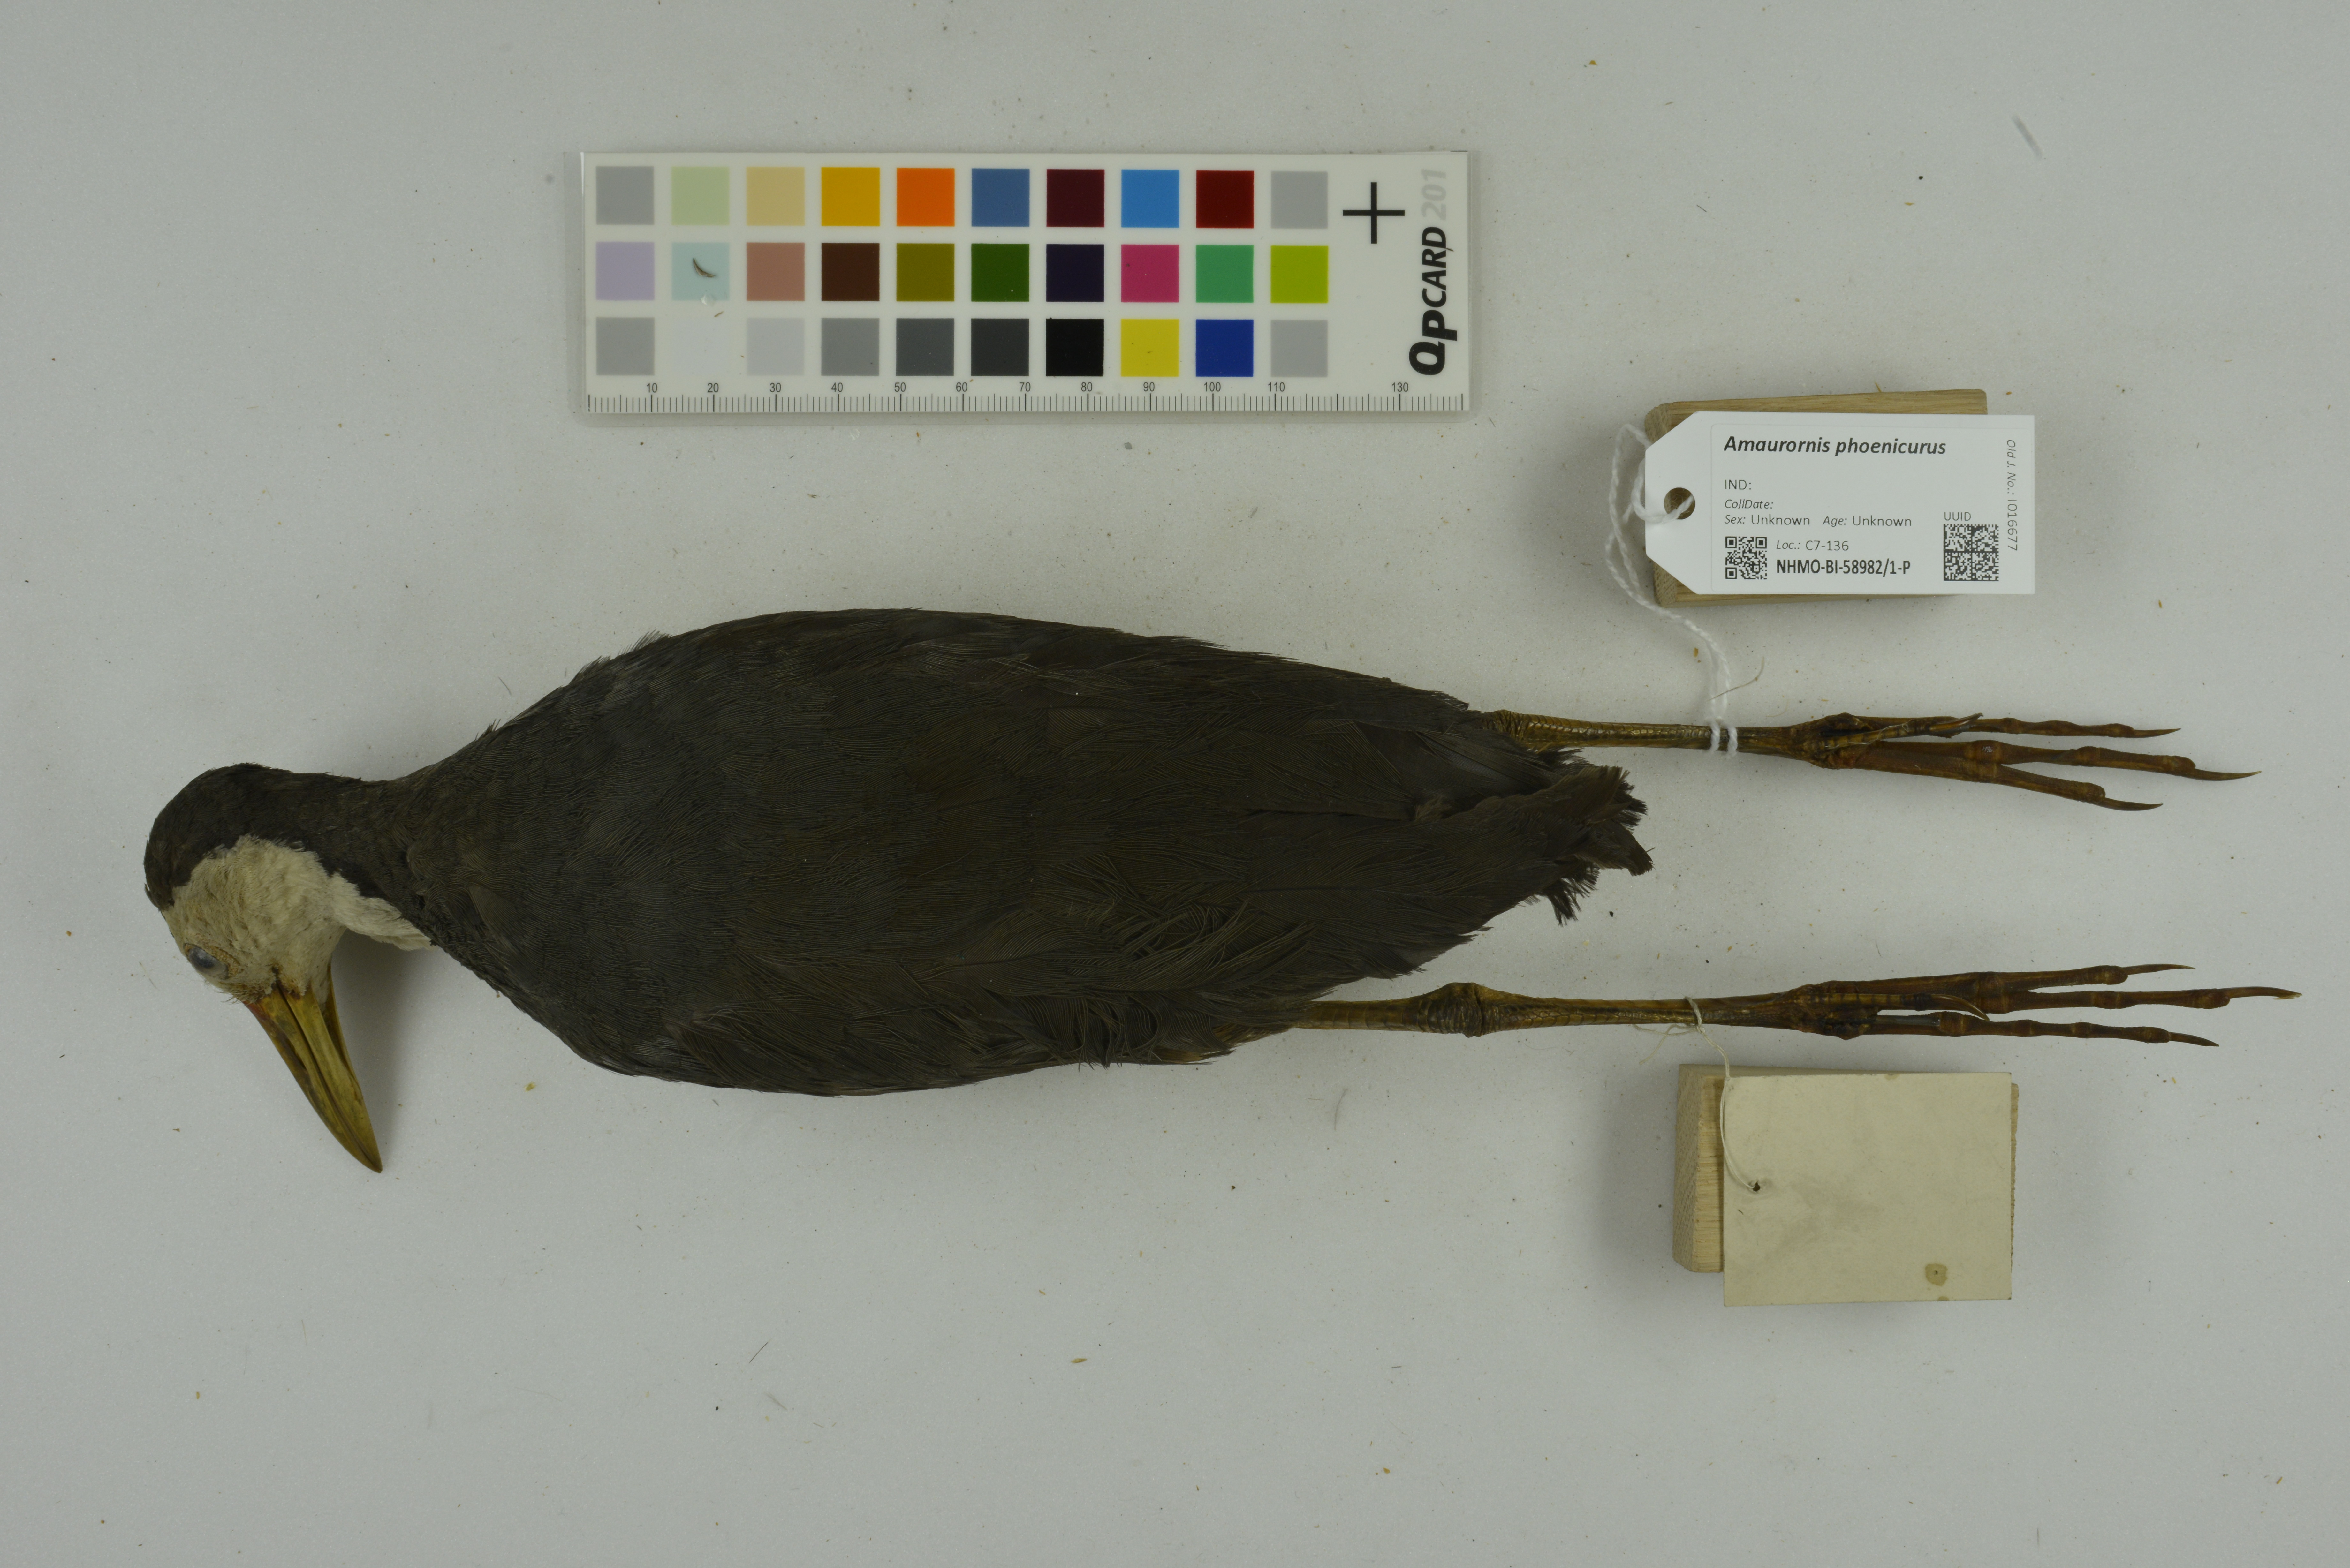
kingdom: Animalia
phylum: Chordata
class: Aves
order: Gruiformes
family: Rallidae
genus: Amaurornis
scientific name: Amaurornis phoenicurus
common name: White-breasted waterhen
